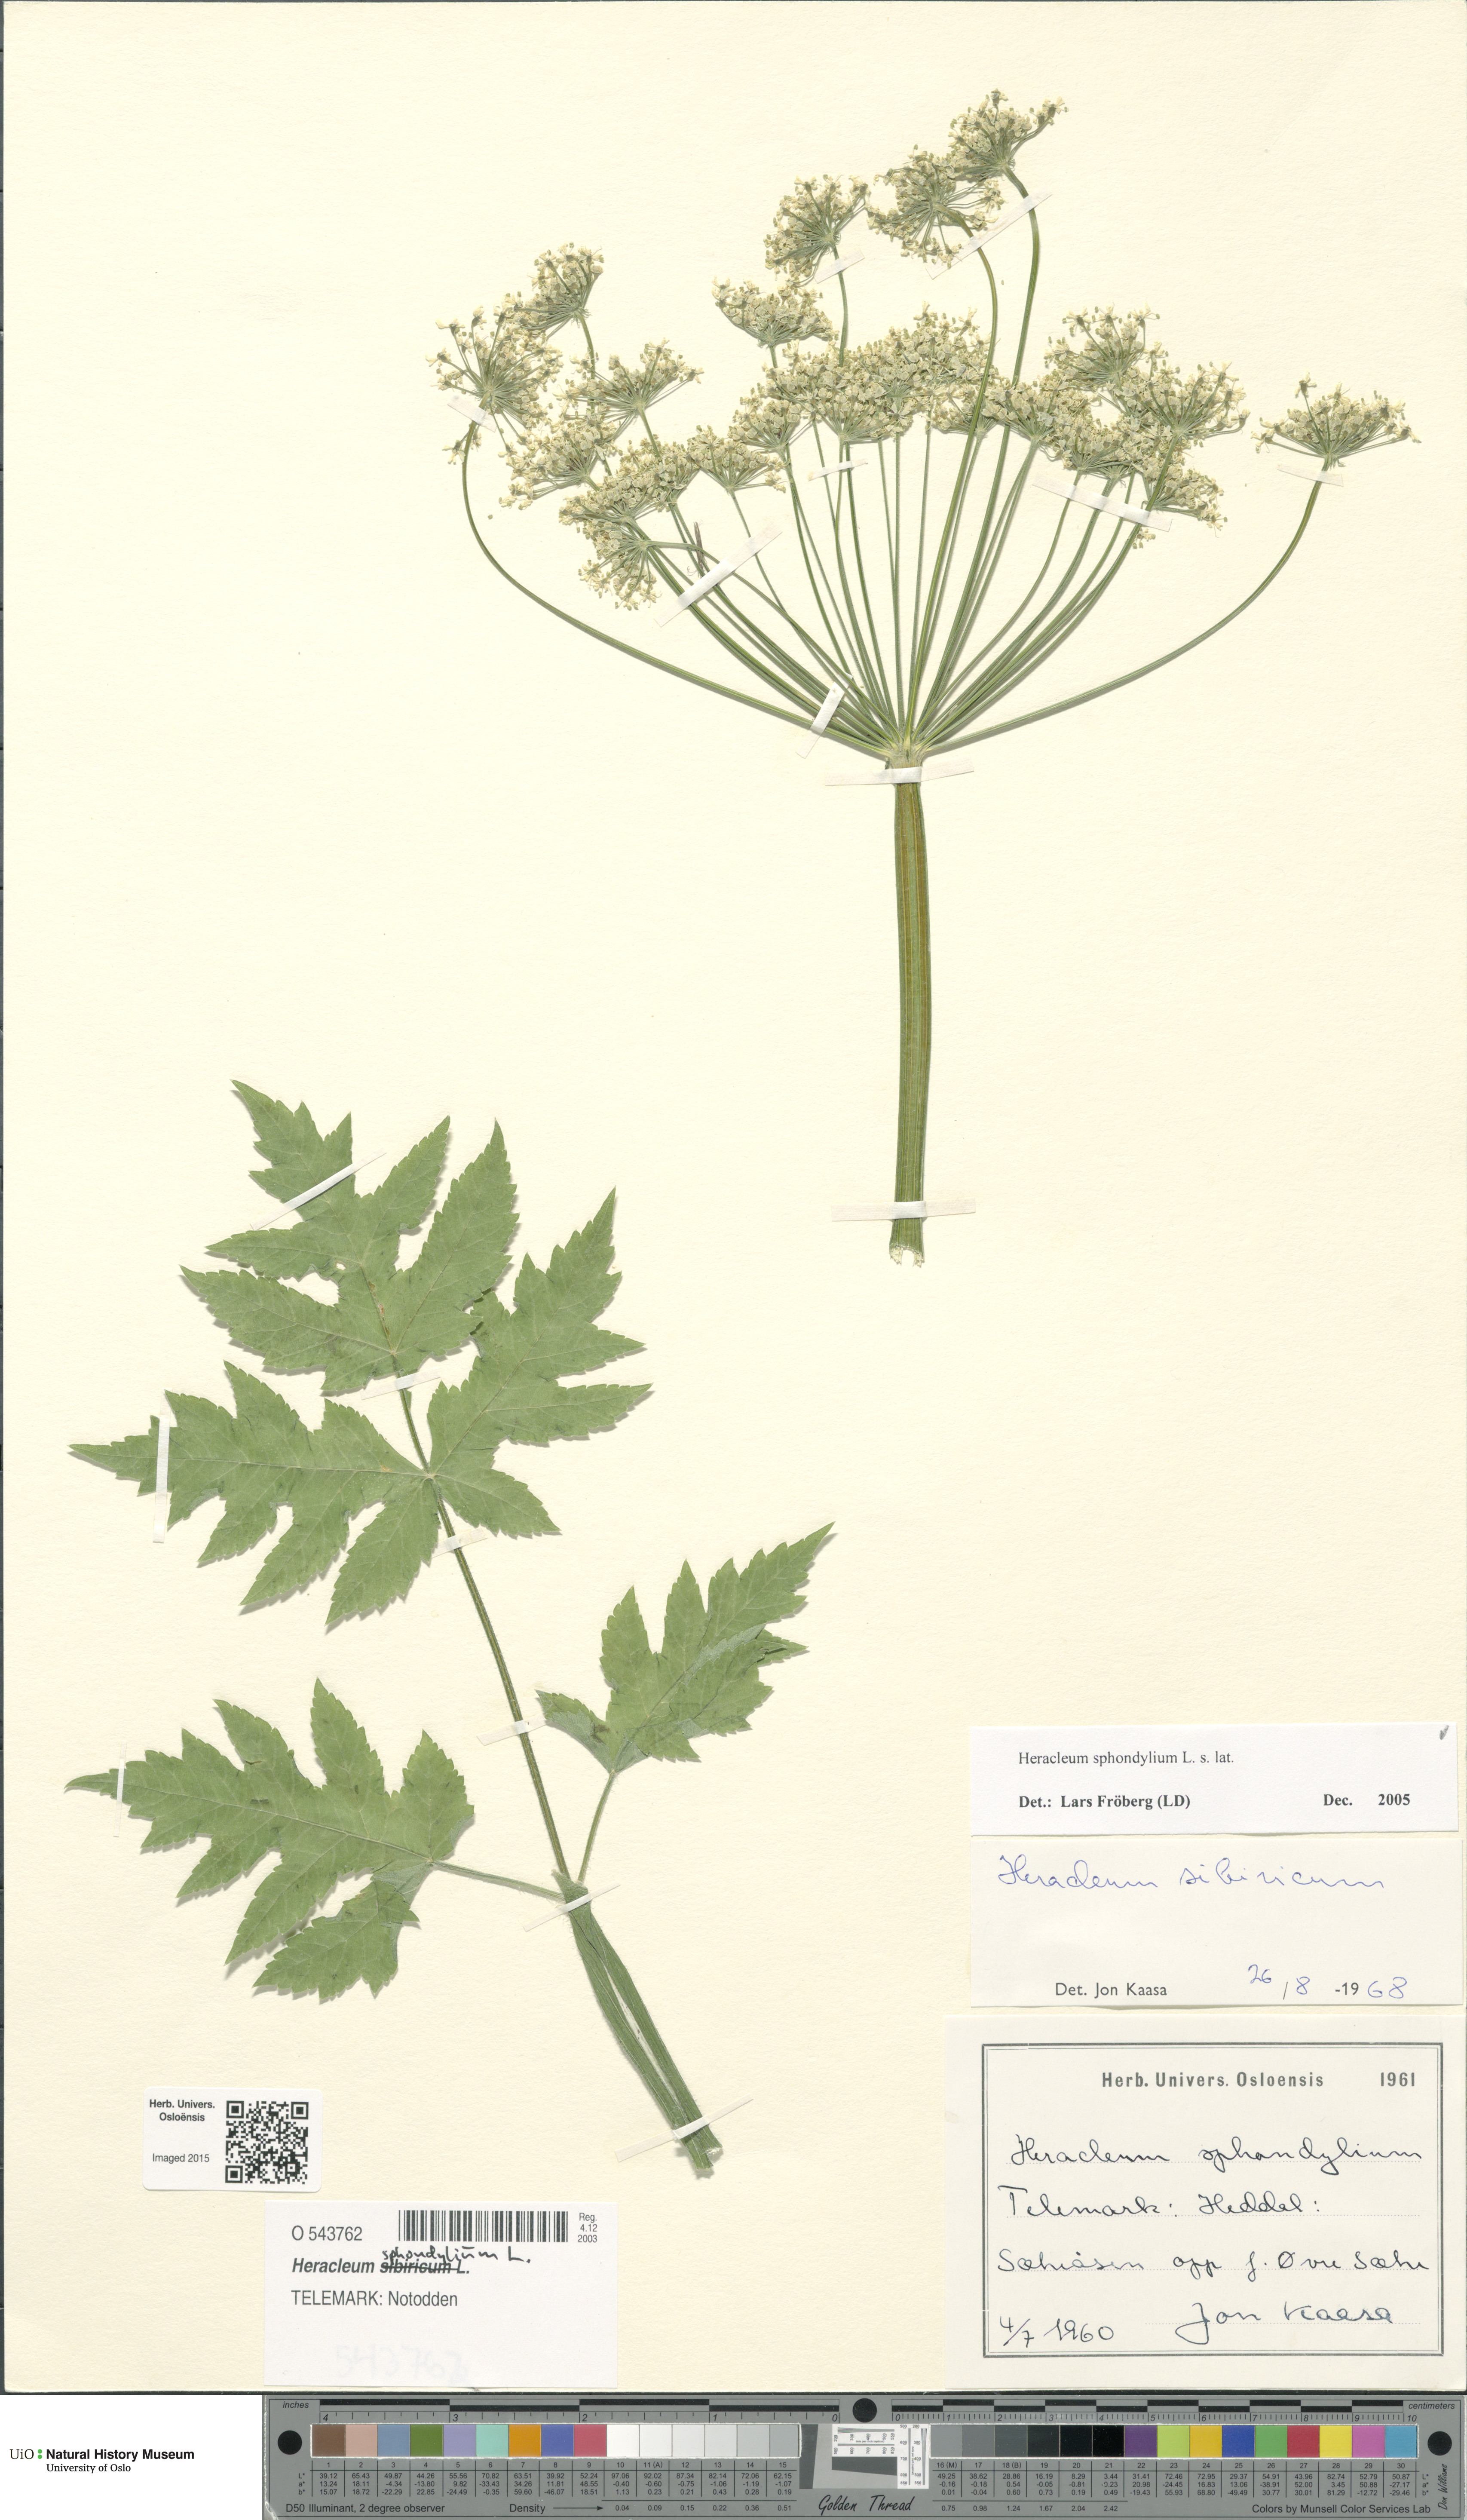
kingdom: Plantae
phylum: Tracheophyta
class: Magnoliopsida
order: Apiales
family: Apiaceae
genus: Heracleum
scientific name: Heracleum sphondylium
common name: Hogweed
